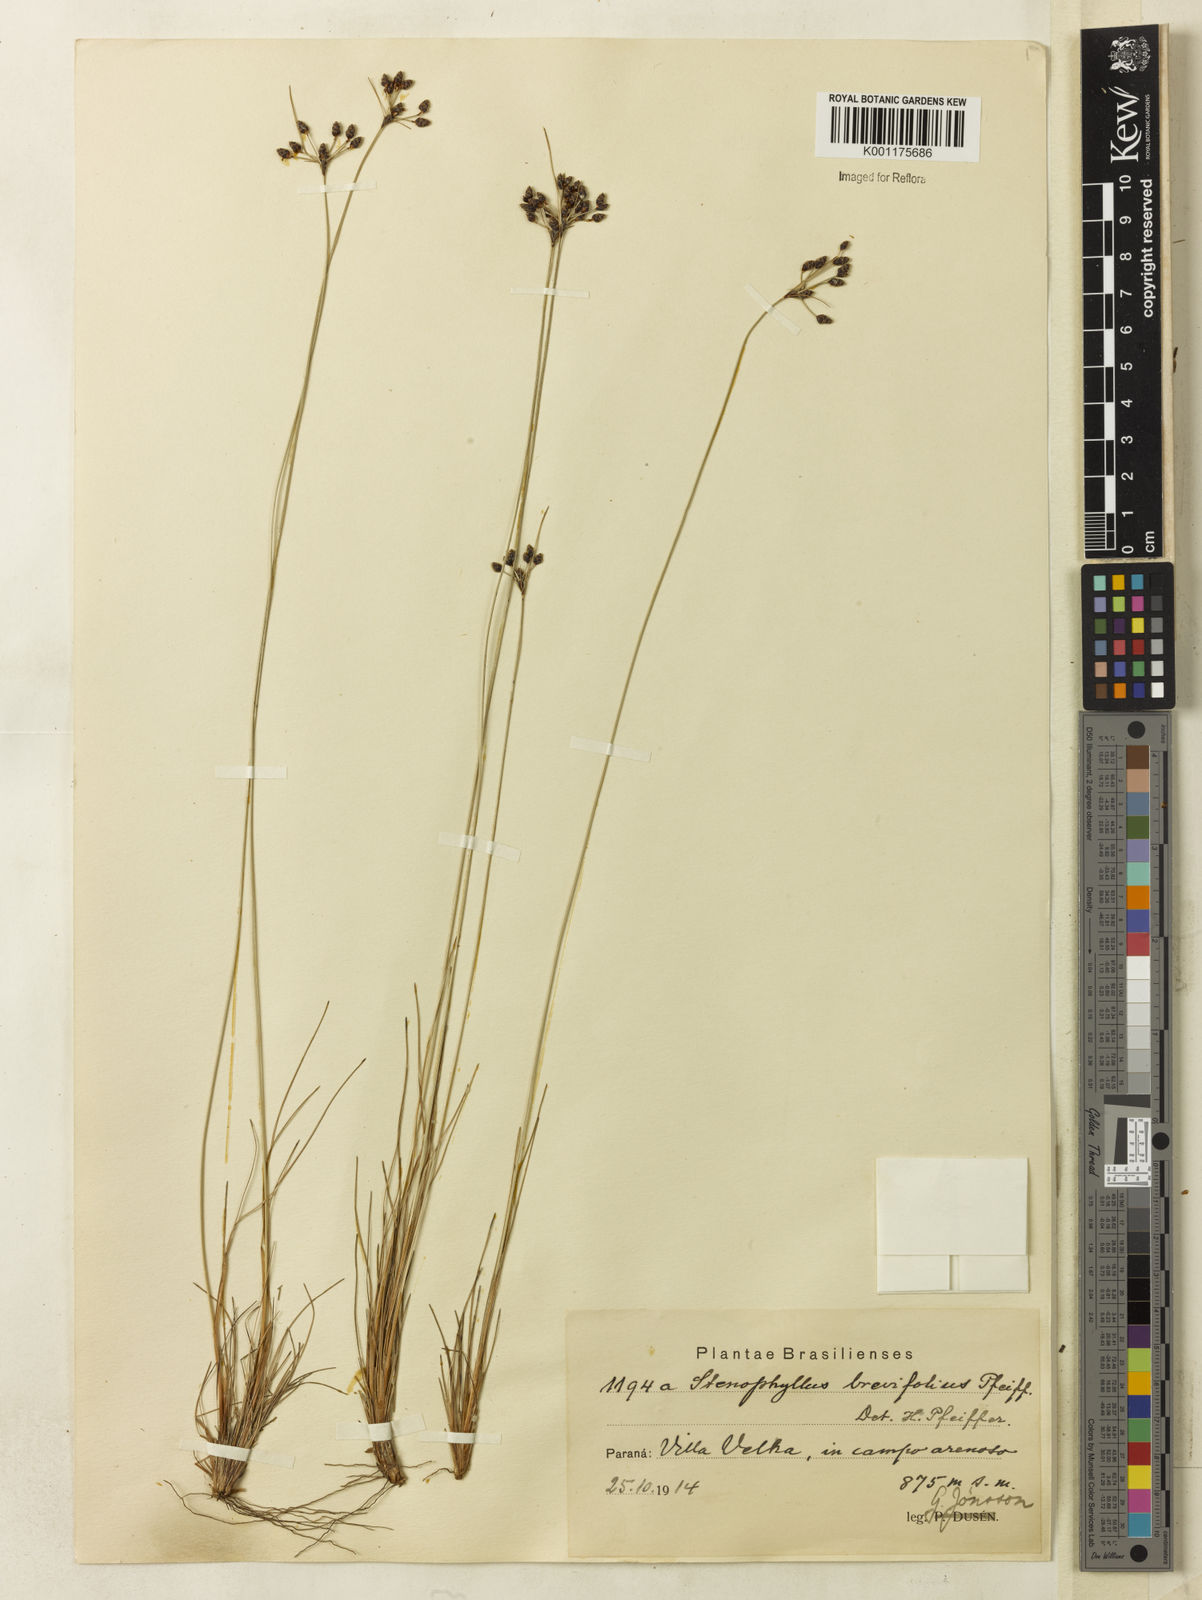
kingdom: Plantae
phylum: Tracheophyta
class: Liliopsida
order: Poales
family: Cyperaceae
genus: Bulbostylis
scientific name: Bulbostylis consanguinea
